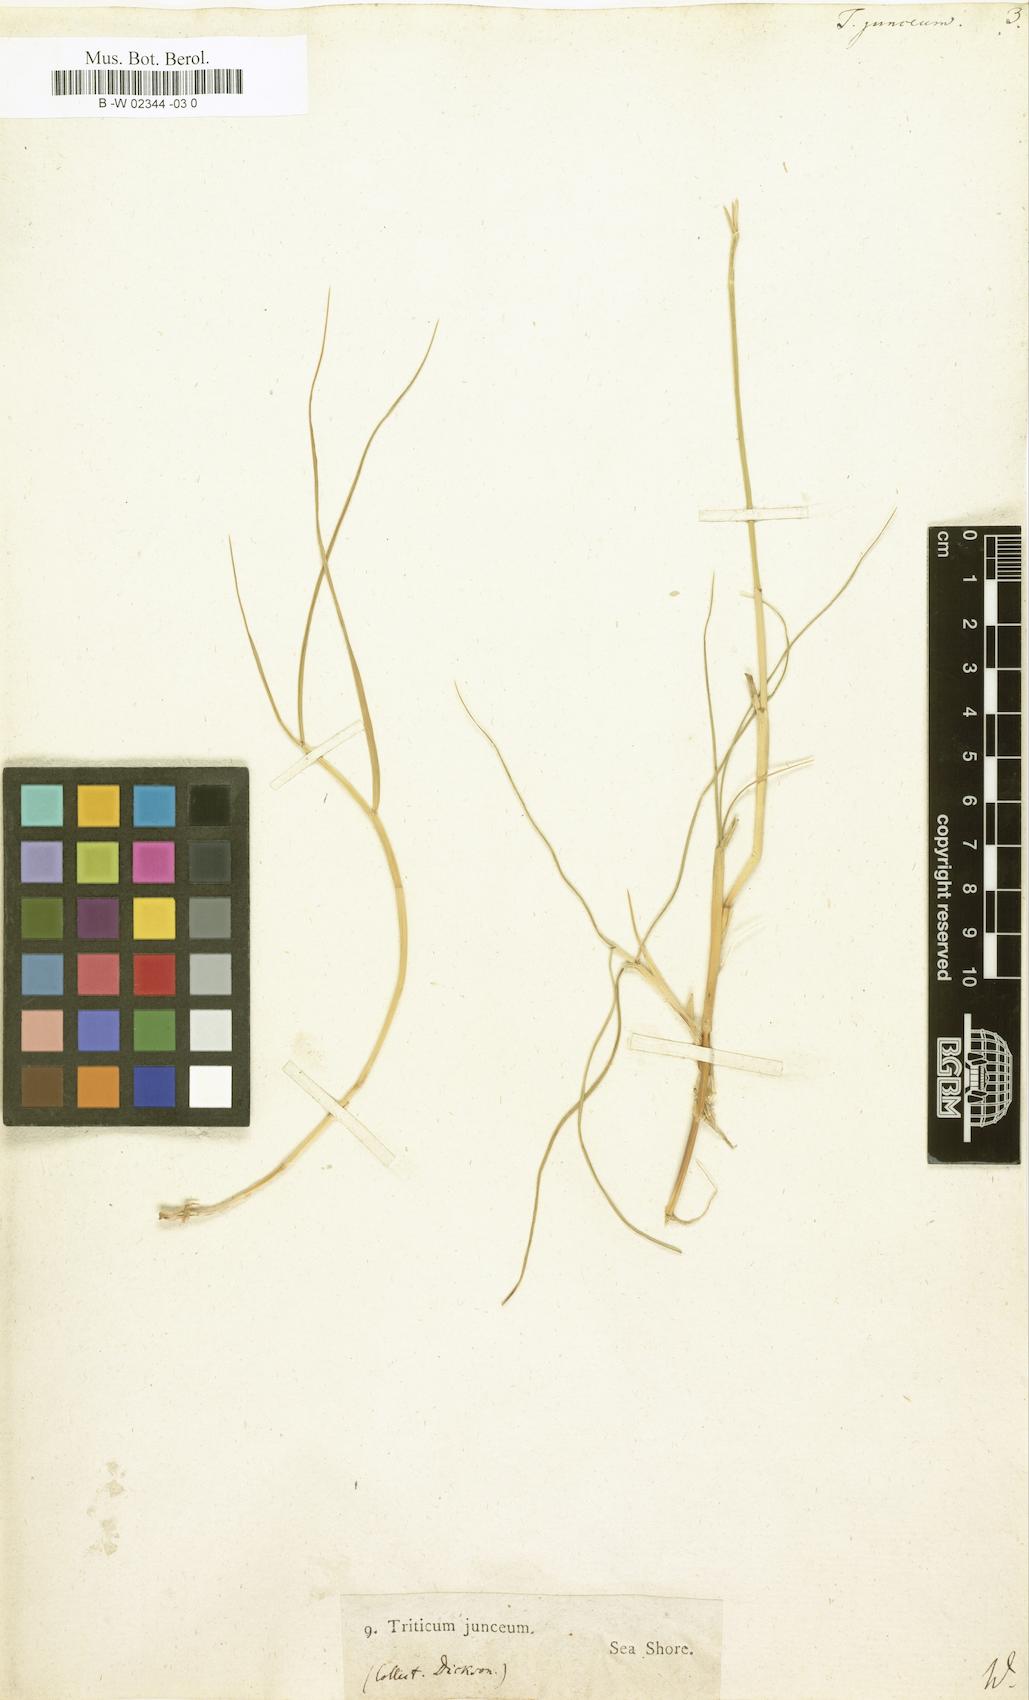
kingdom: Plantae
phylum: Tracheophyta
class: Liliopsida
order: Poales
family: Poaceae
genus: Thinopyrum
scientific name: Thinopyrum
